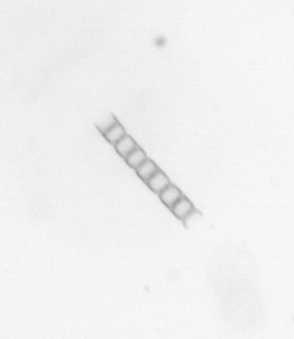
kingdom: Chromista
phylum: Ochrophyta
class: Bacillariophyceae
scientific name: Bacillariophyceae
